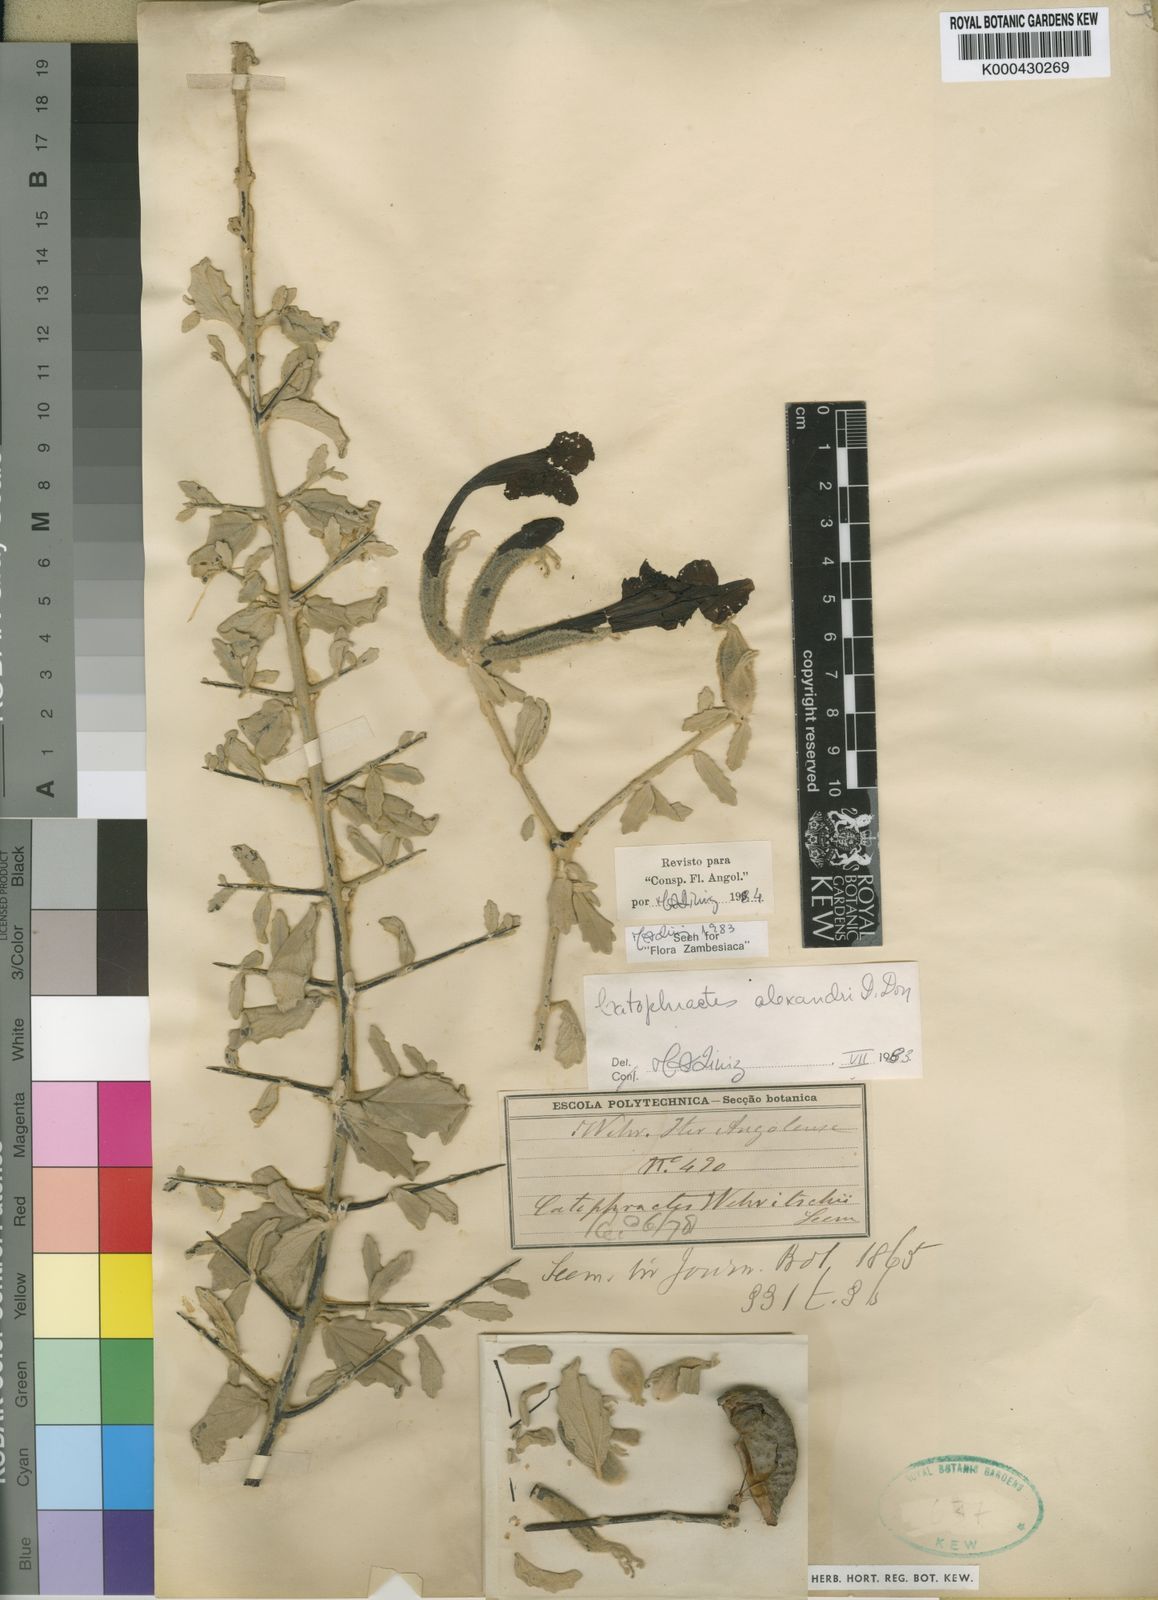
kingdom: Plantae
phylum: Tracheophyta
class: Magnoliopsida
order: Lamiales
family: Bignoniaceae
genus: Catophractes
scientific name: Catophractes alexandri
